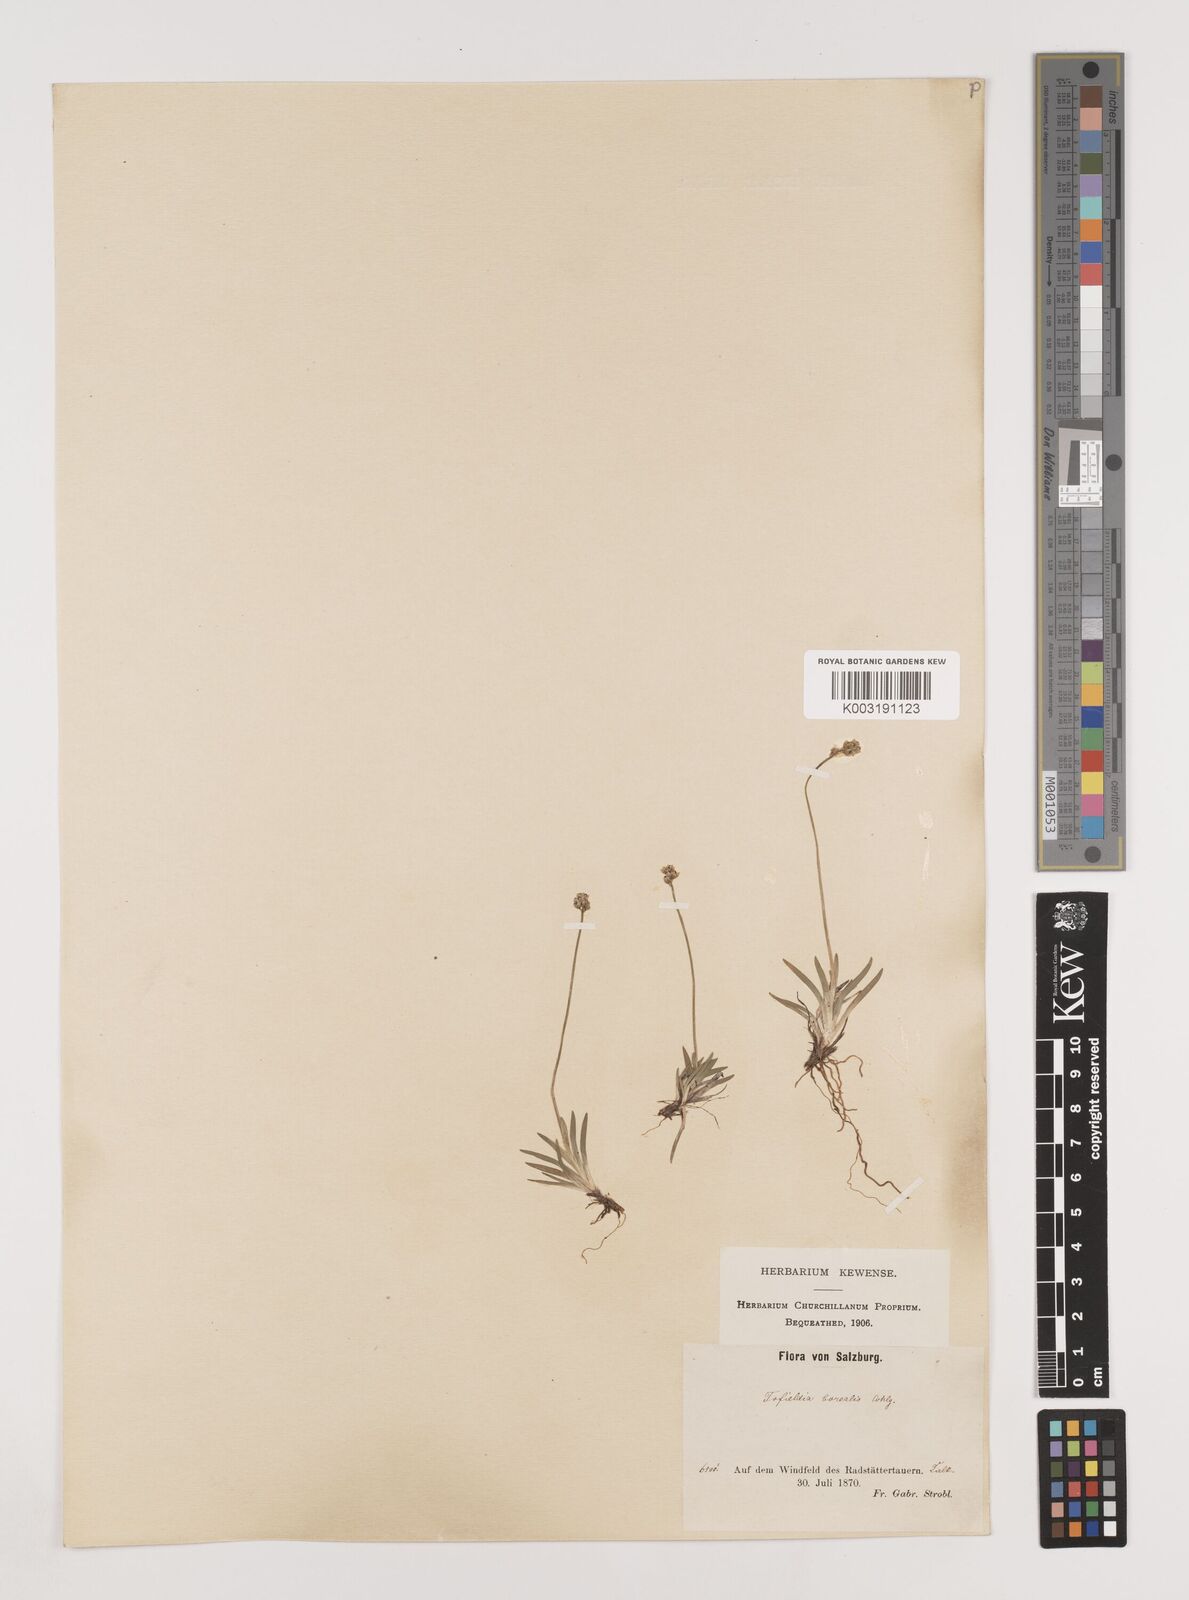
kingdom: Plantae
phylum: Tracheophyta
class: Liliopsida
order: Alismatales
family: Tofieldiaceae
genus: Tofieldia
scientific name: Tofieldia pusilla
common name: Scottish false asphodel
